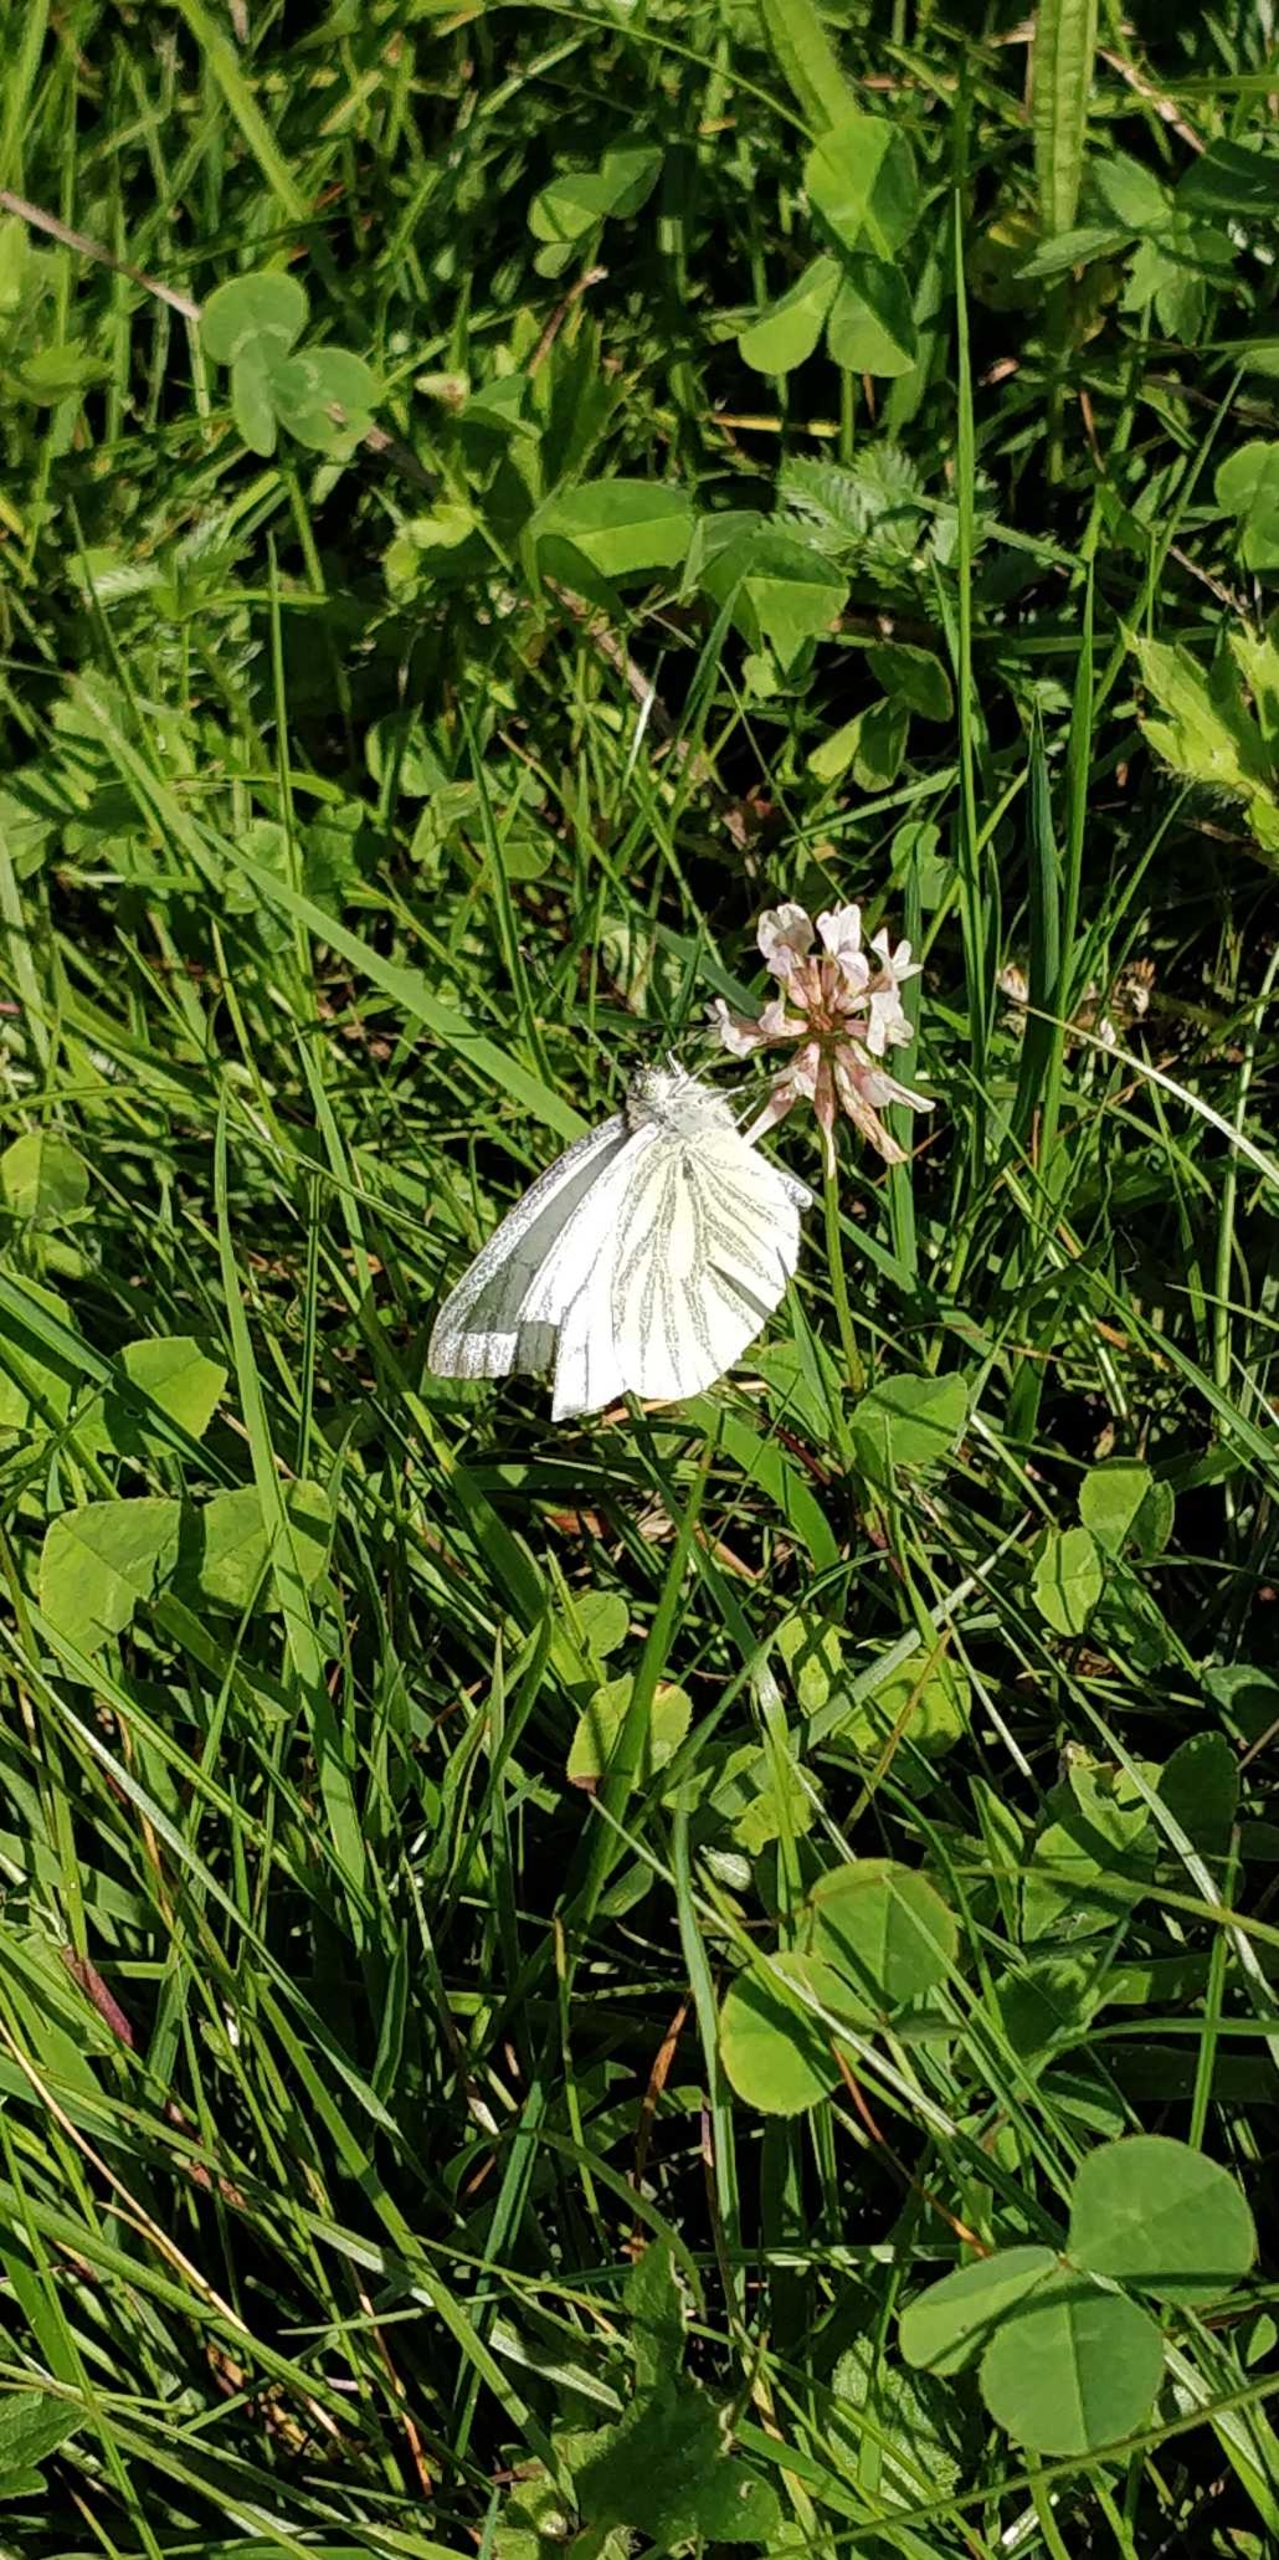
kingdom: Animalia
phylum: Arthropoda
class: Insecta
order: Lepidoptera
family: Pieridae
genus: Pieris
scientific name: Pieris napi
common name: Grønåret kålsommerfugl
